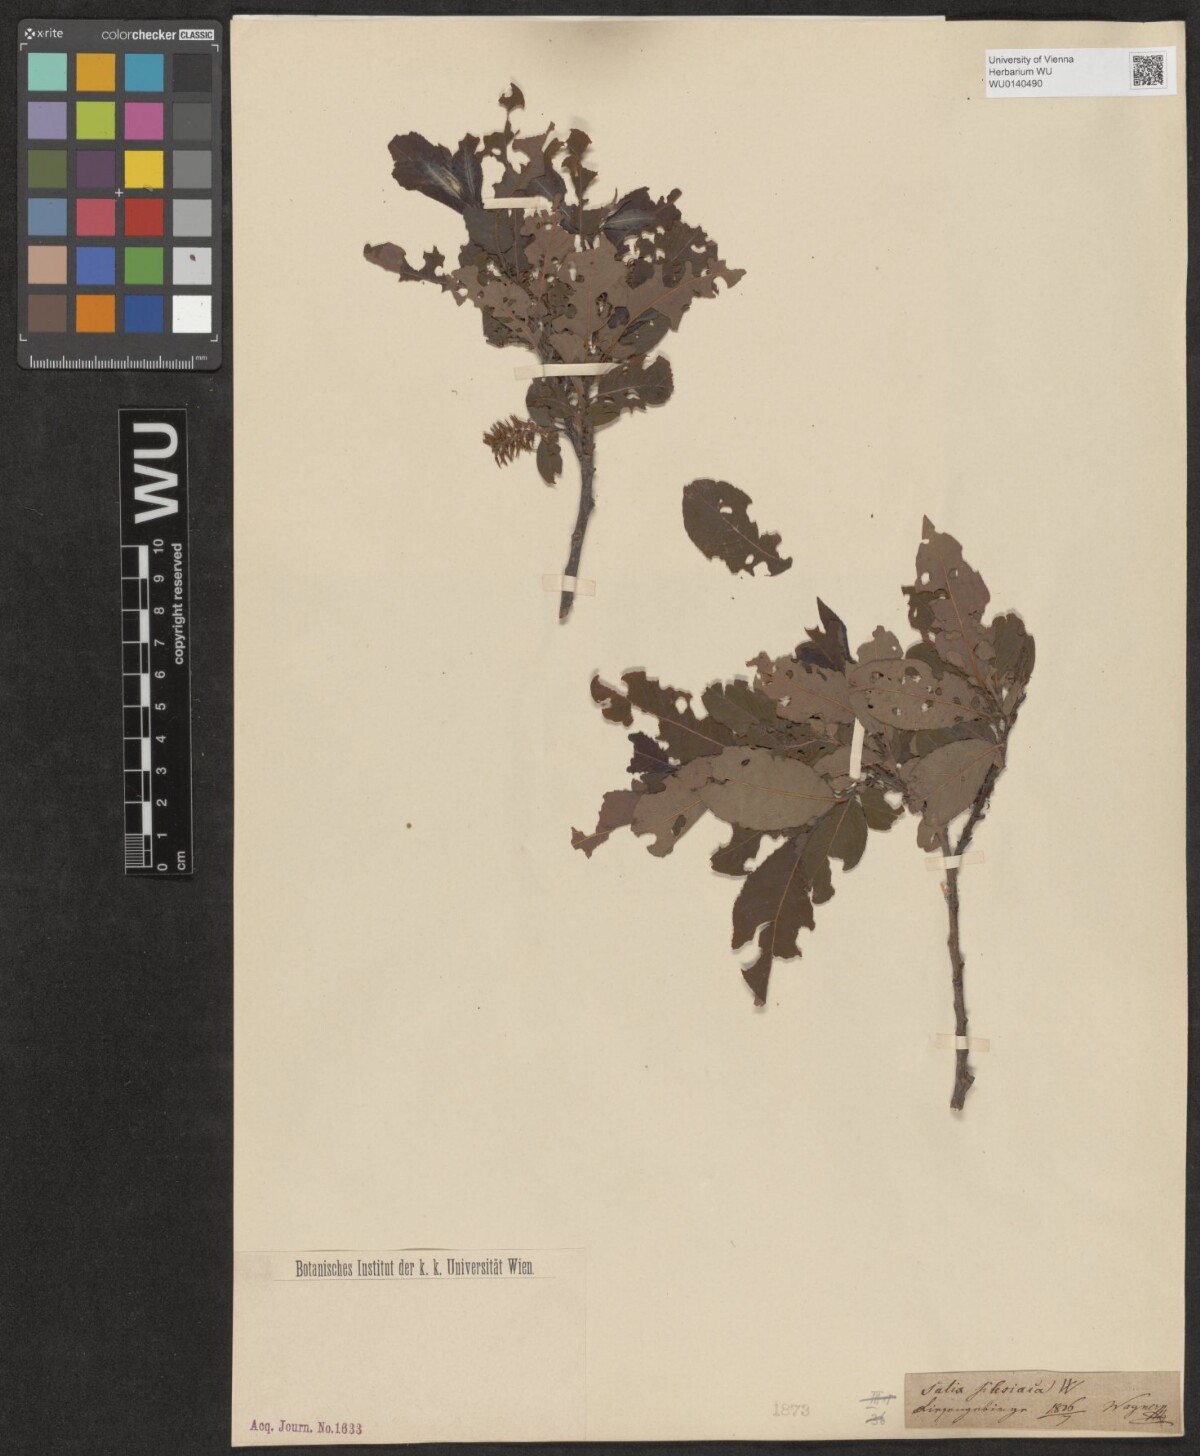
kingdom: Plantae
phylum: Tracheophyta
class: Magnoliopsida
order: Malpighiales
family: Salicaceae
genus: Salix
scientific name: Salix silesiaca
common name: Silesian willow
